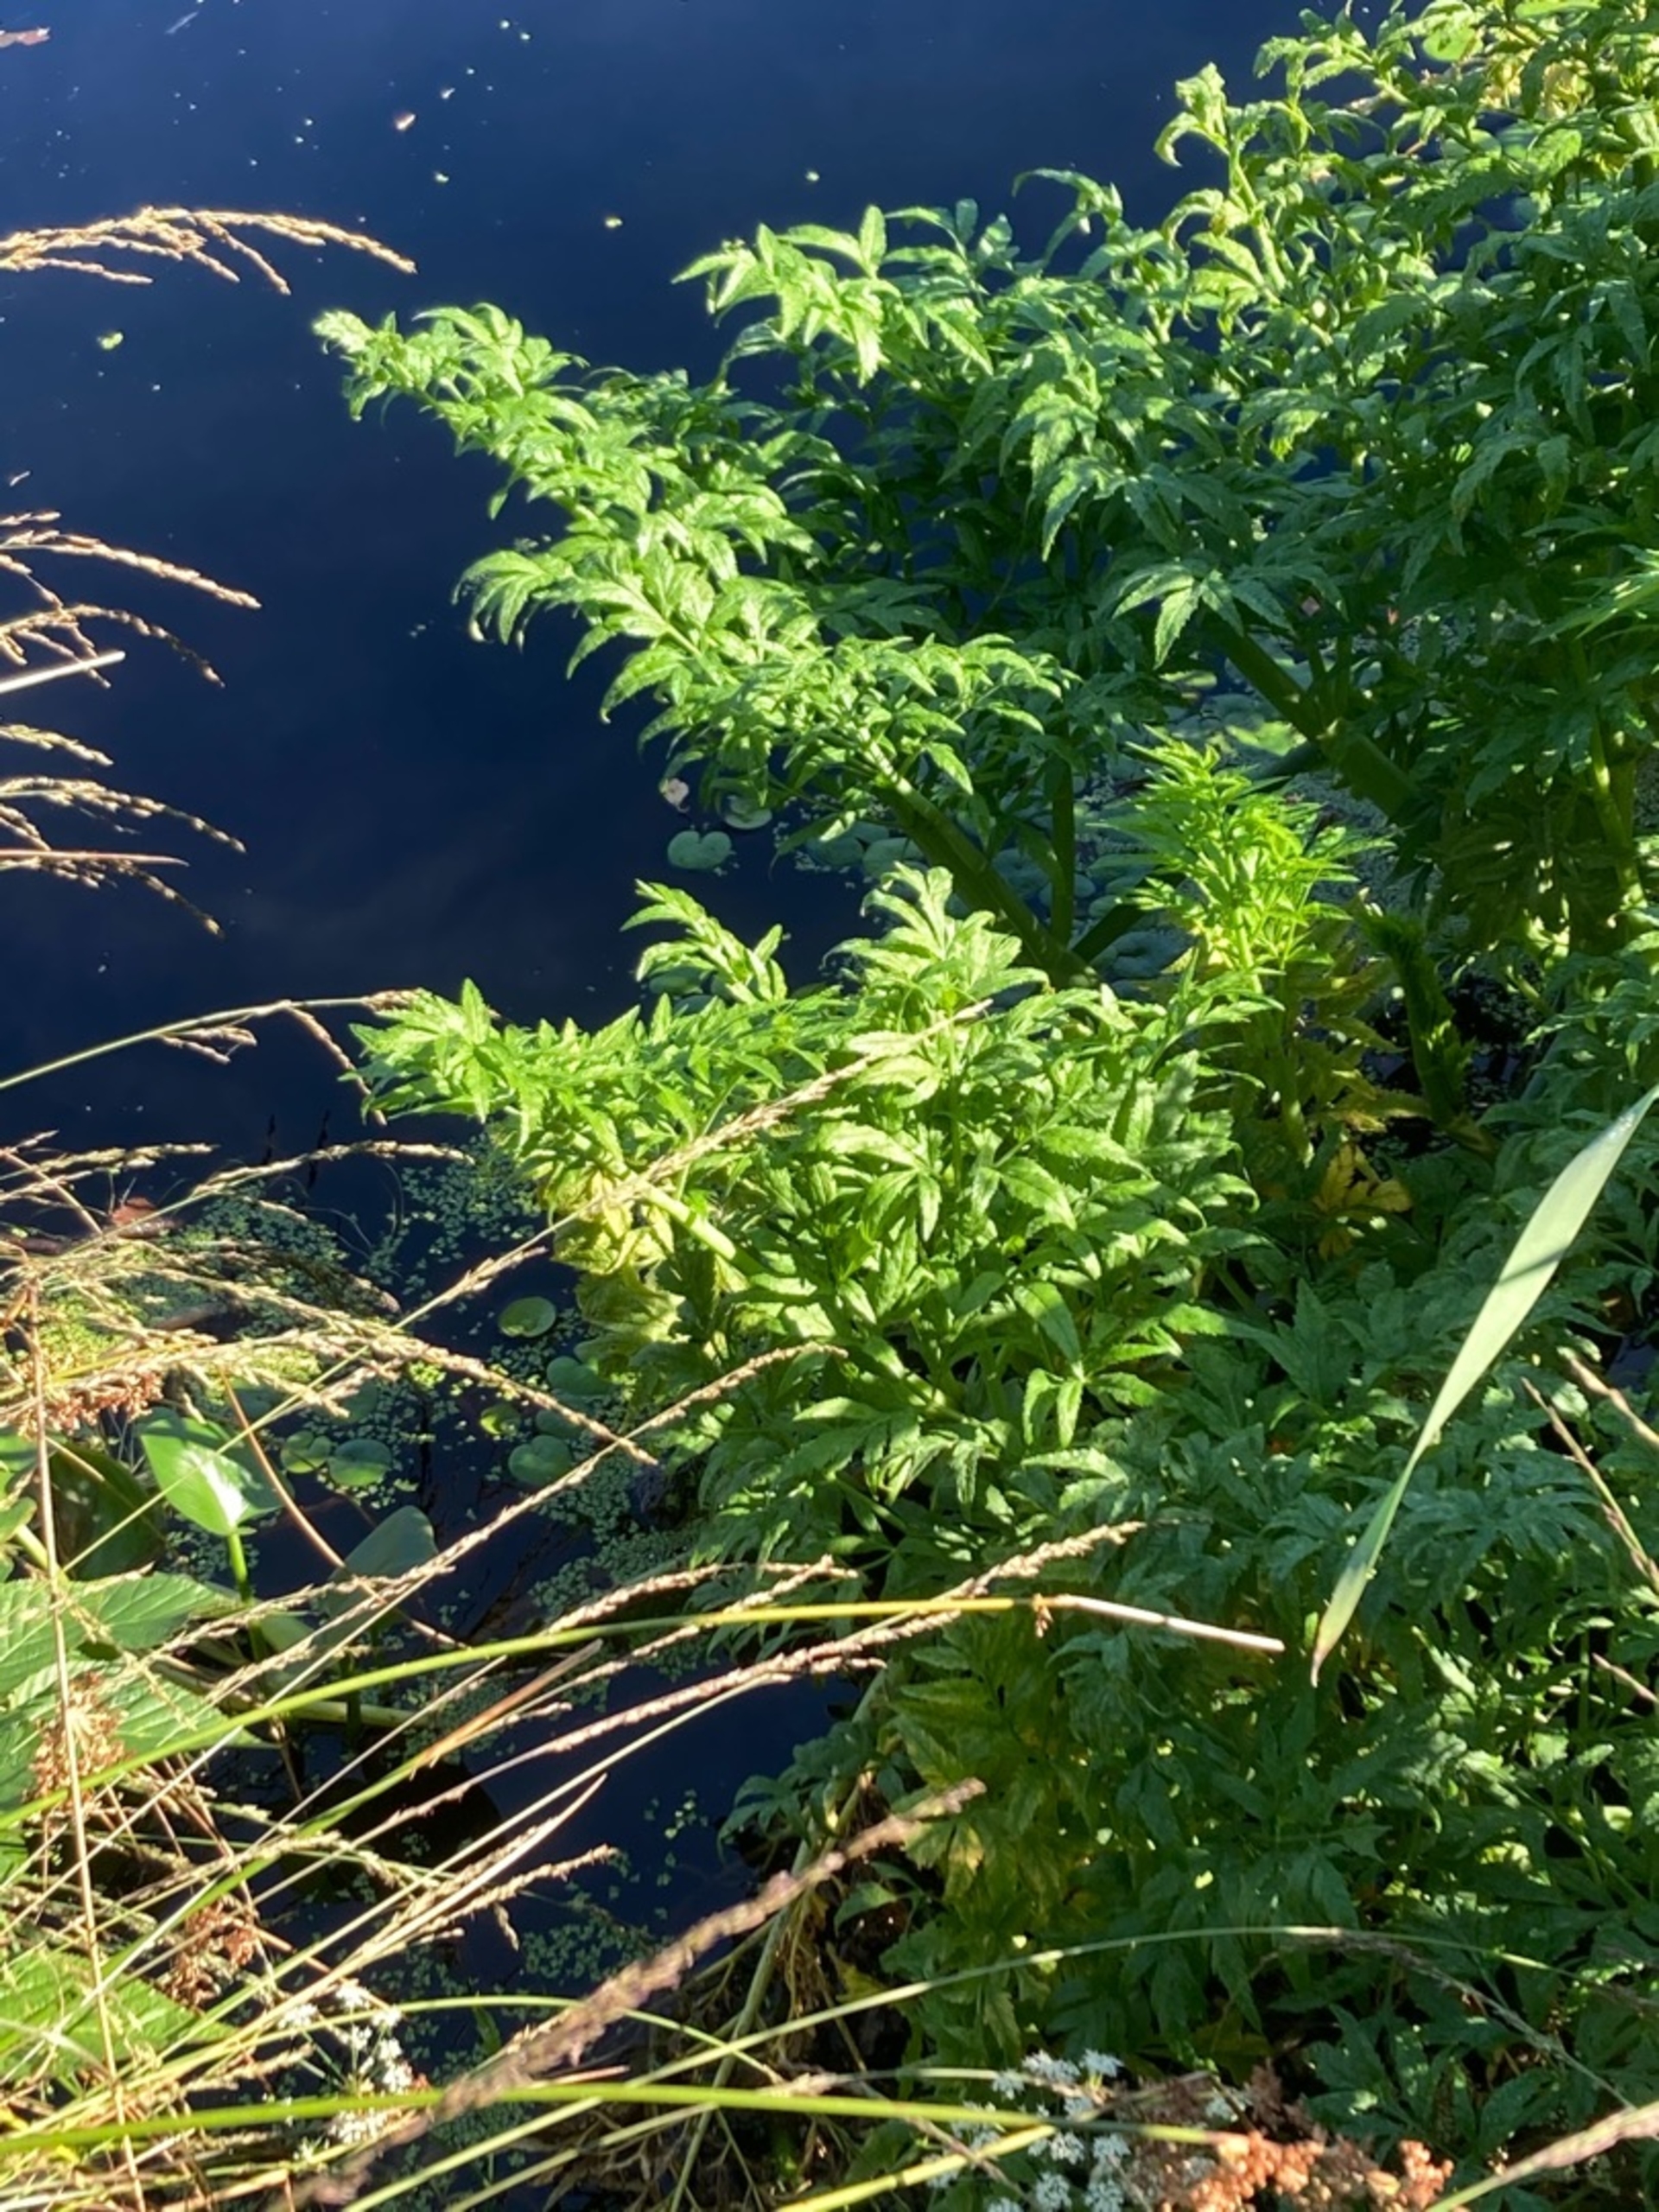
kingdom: Plantae
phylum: Tracheophyta
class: Magnoliopsida
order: Apiales
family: Apiaceae
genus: Cicuta
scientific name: Cicuta virosa
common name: Gifttyde
